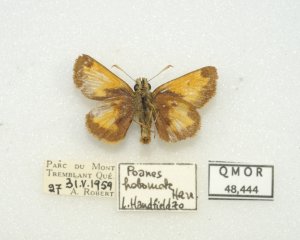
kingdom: Animalia
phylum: Arthropoda
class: Insecta
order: Lepidoptera
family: Hesperiidae
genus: Lon
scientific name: Lon hobomok
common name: Hobomok Skipper
